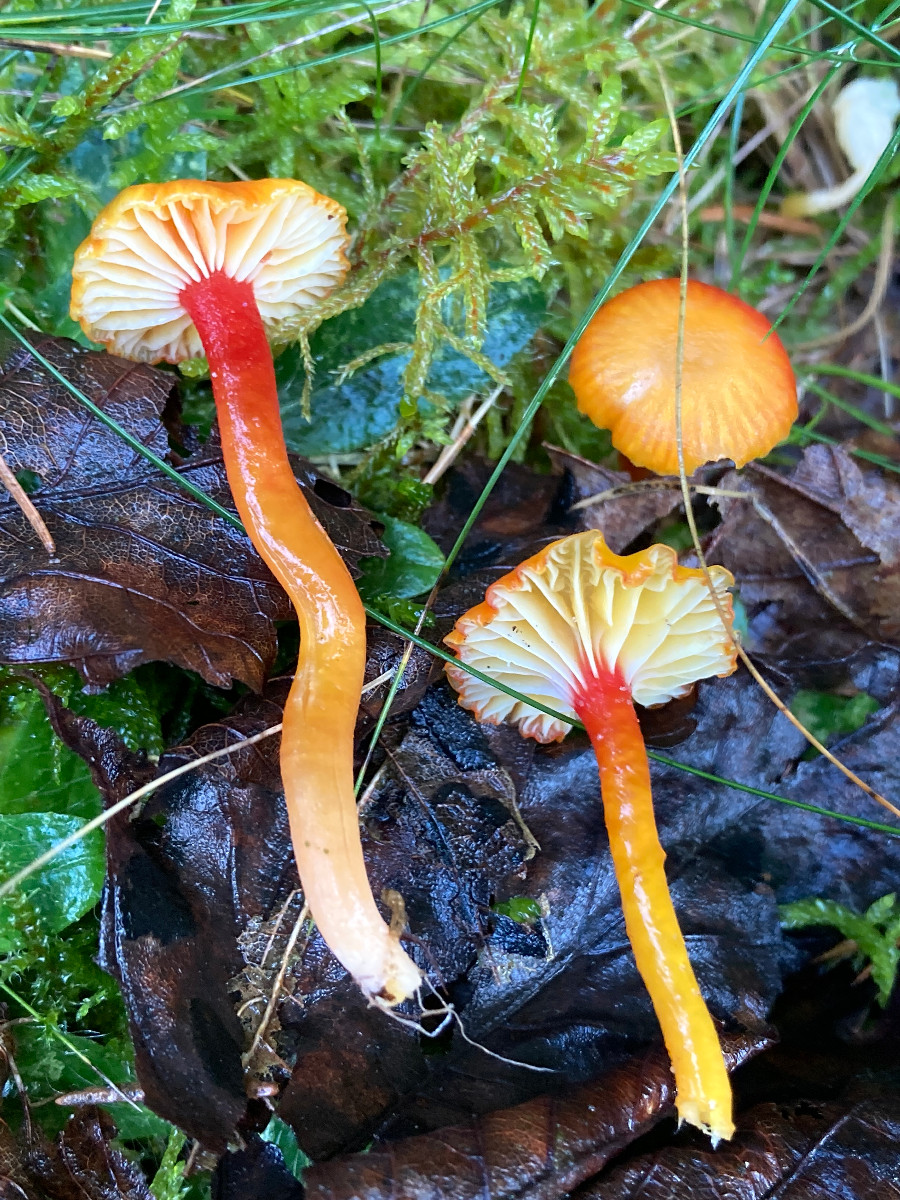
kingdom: Fungi
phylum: Basidiomycota
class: Agaricomycetes
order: Agaricales
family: Hygrophoraceae
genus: Hygrocybe
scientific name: Hygrocybe insipida
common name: liden vokshat
